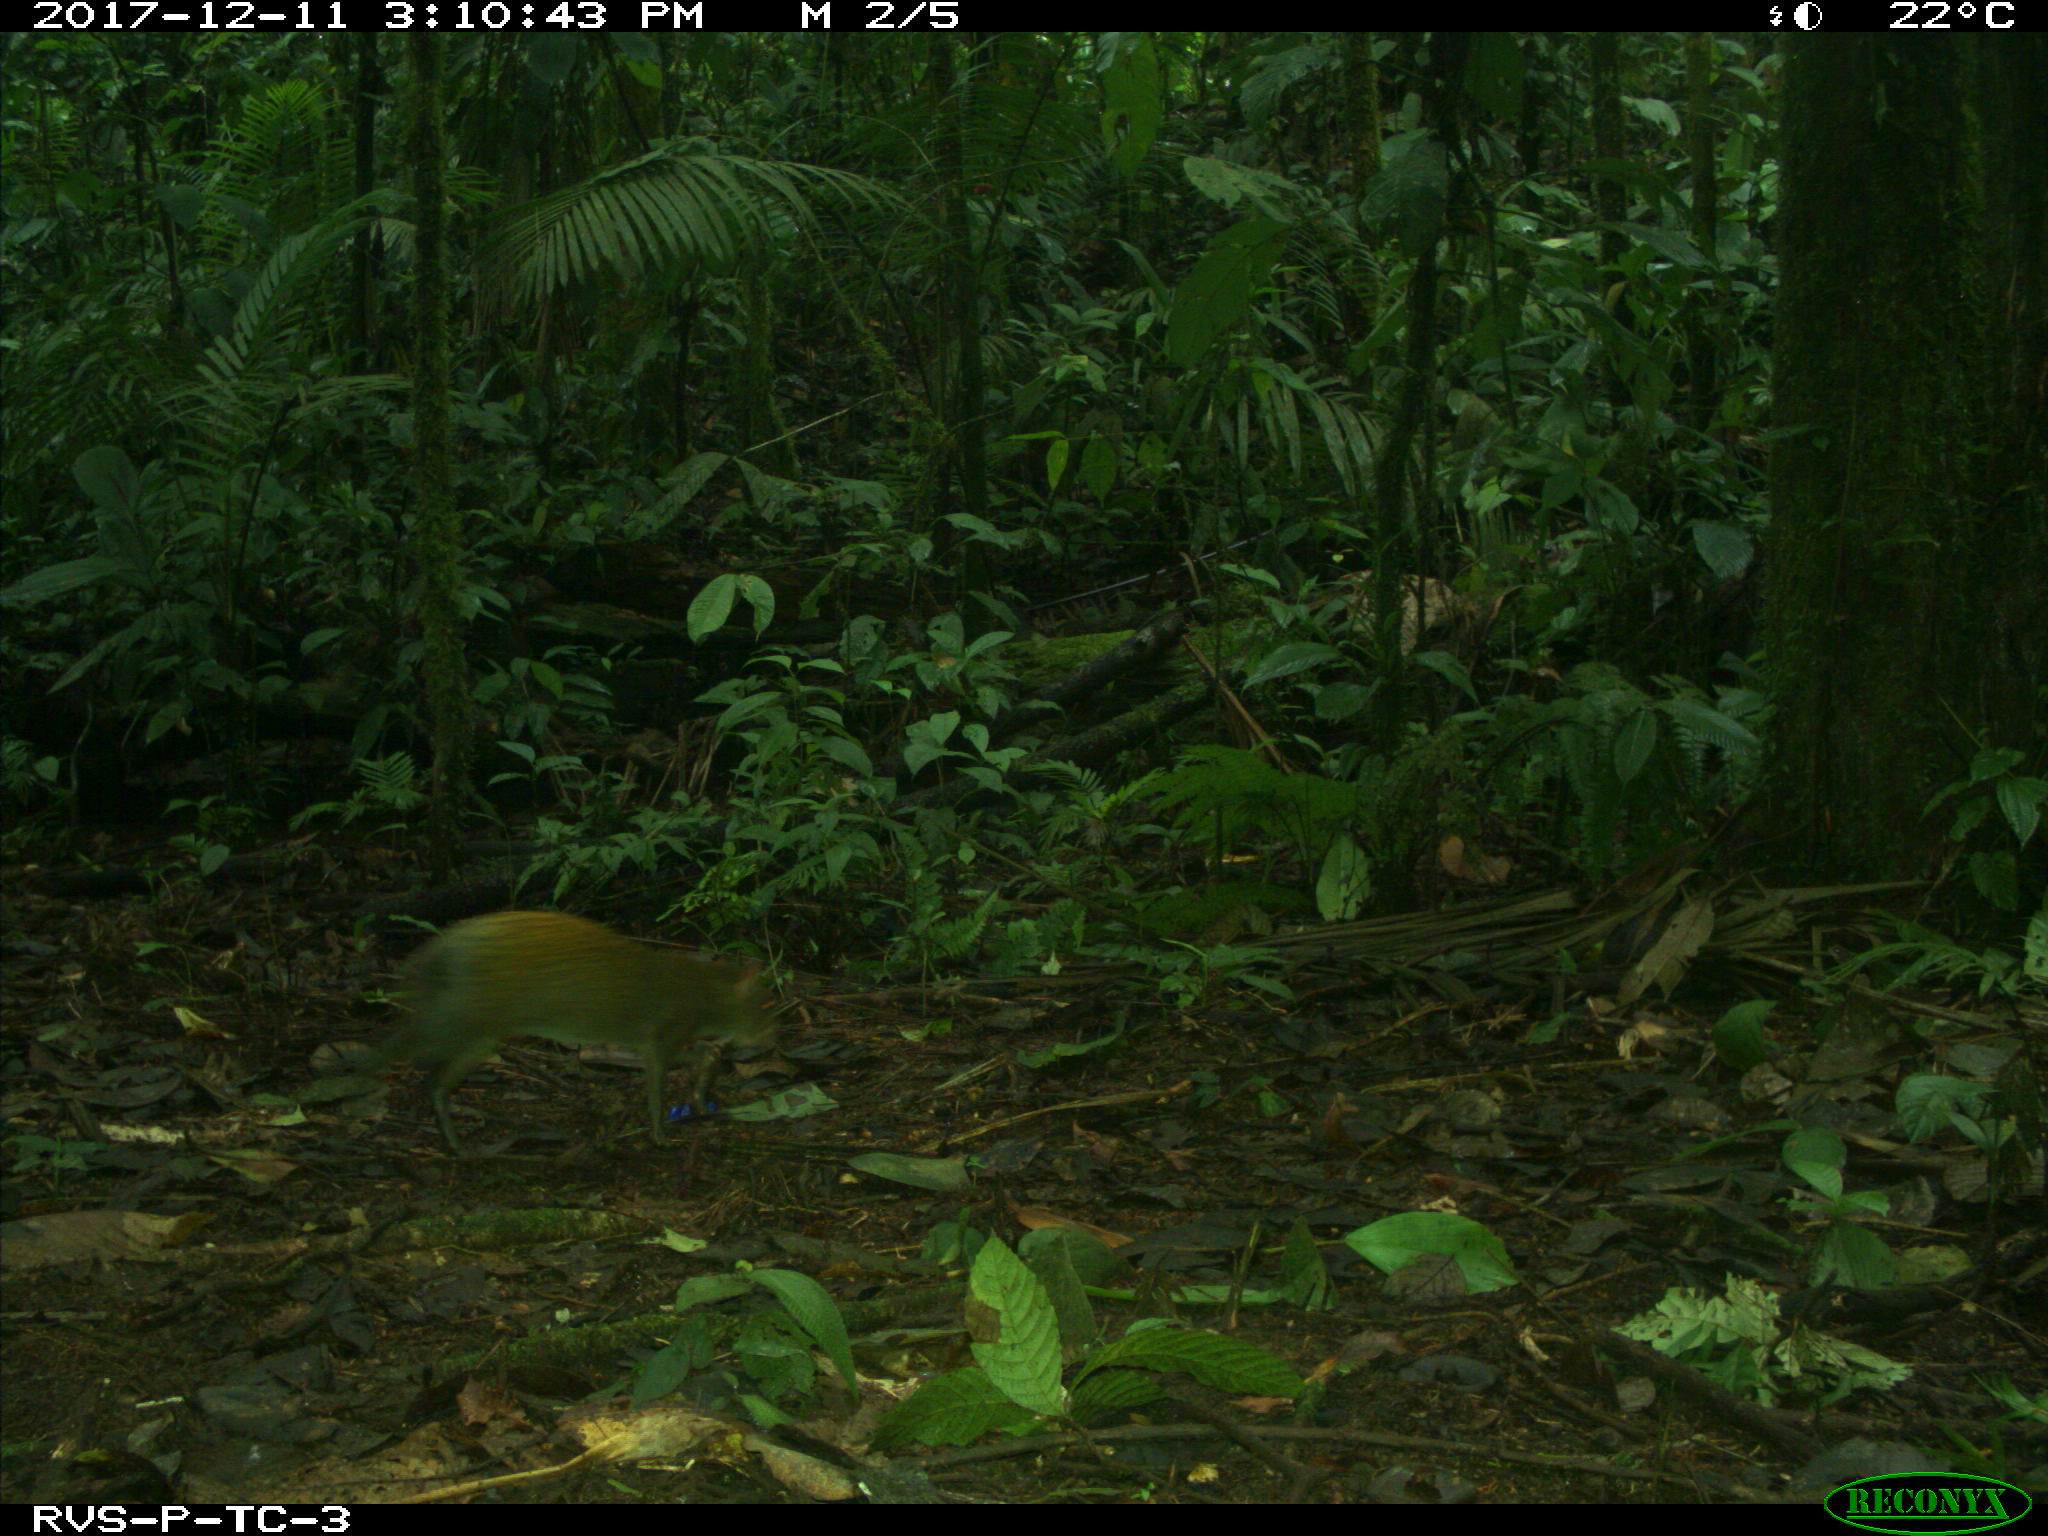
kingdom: Animalia
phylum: Chordata
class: Mammalia
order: Rodentia
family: Dasyproctidae
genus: Dasyprocta
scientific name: Dasyprocta punctata
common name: Central american agouti
